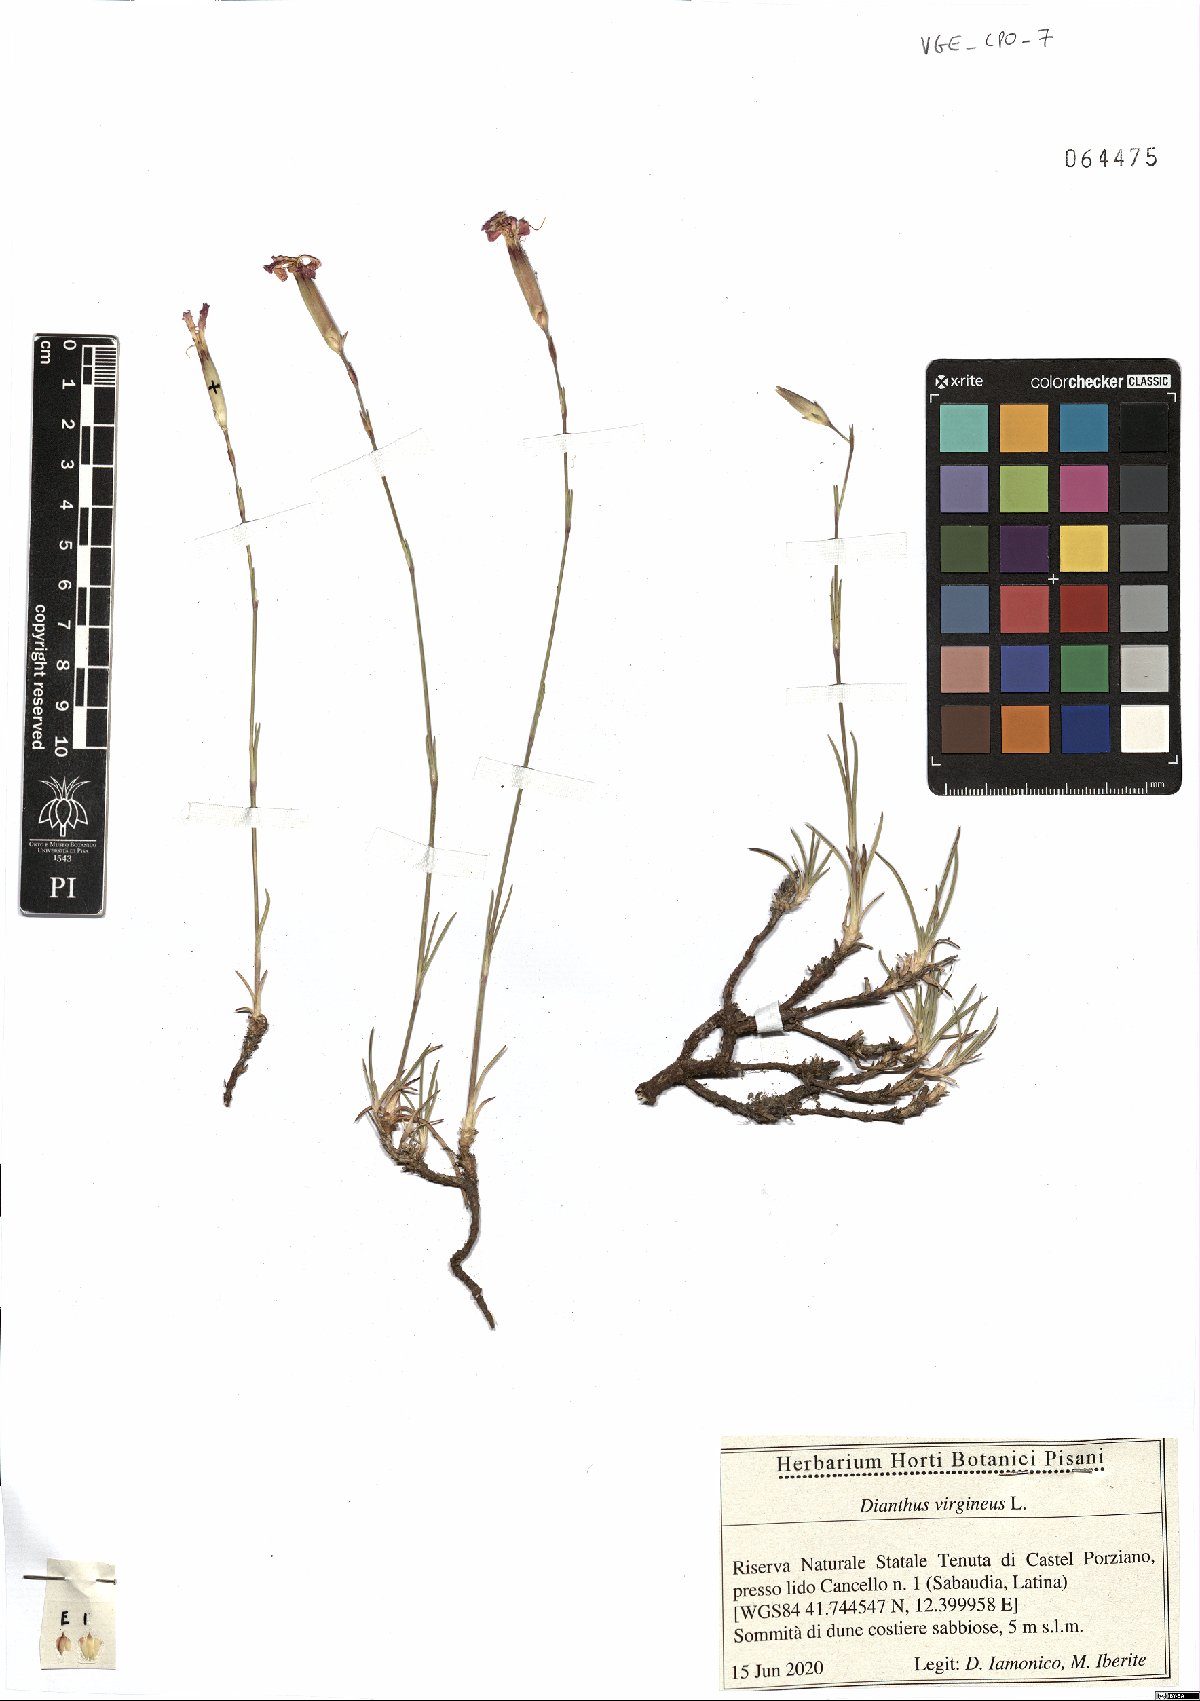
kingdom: Plantae
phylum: Tracheophyta
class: Magnoliopsida
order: Caryophyllales
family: Caryophyllaceae
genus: Dianthus
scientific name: Dianthus virgineus
